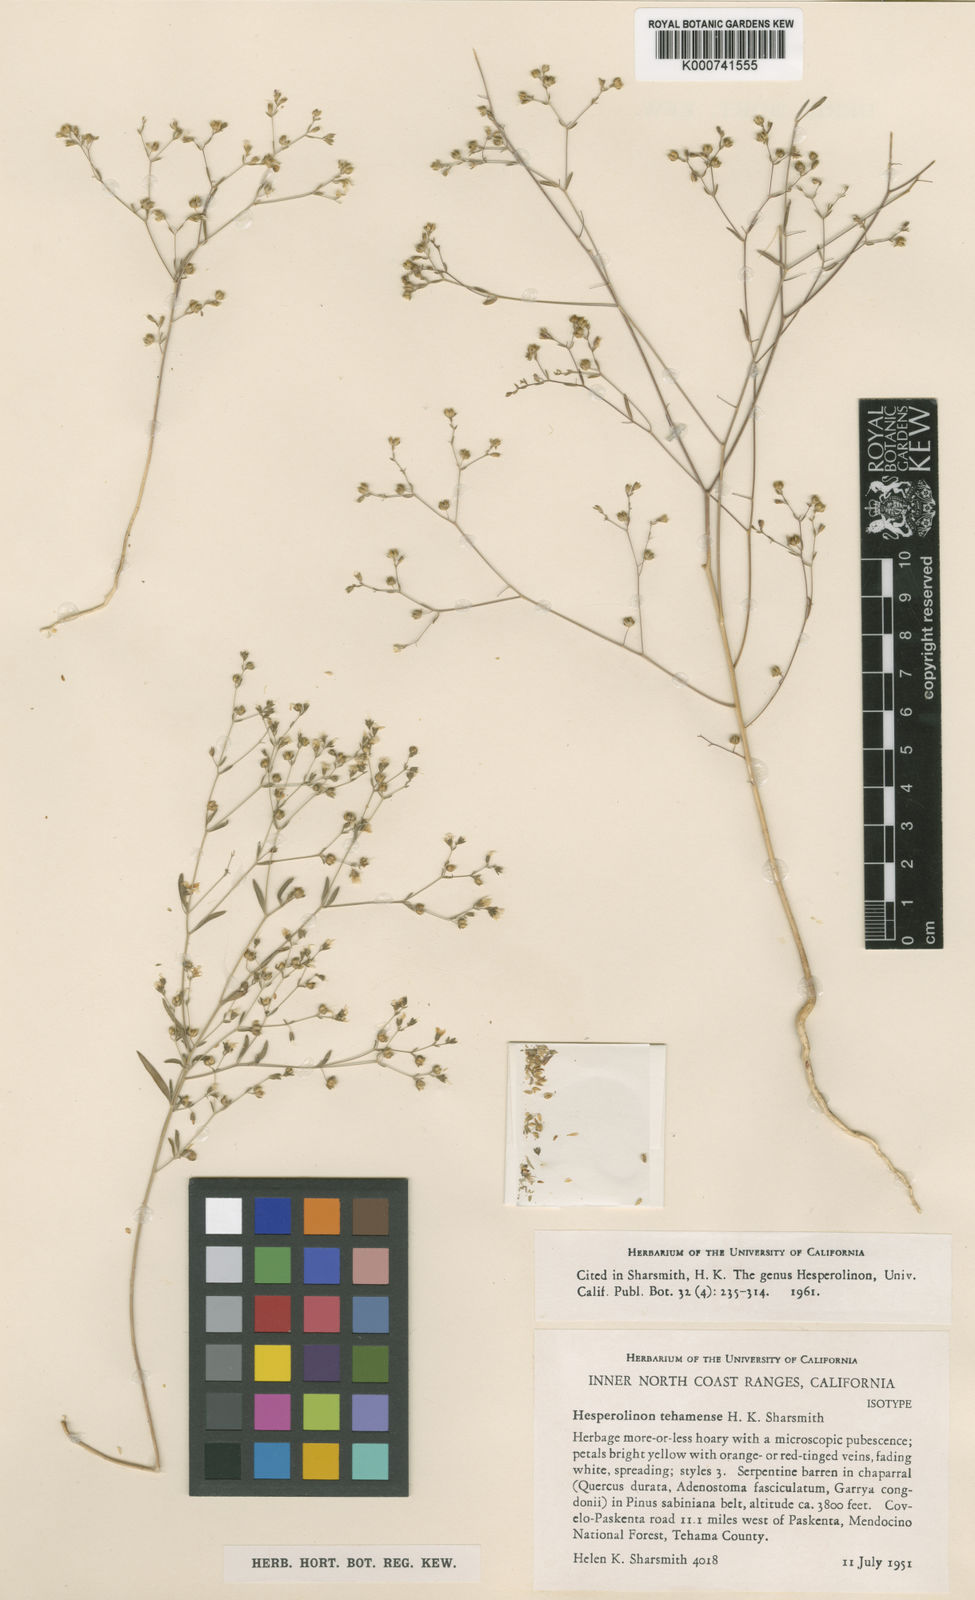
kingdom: Plantae
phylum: Tracheophyta
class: Magnoliopsida
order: Malpighiales
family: Linaceae
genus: Hesperolinon
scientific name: Hesperolinon tehamense
